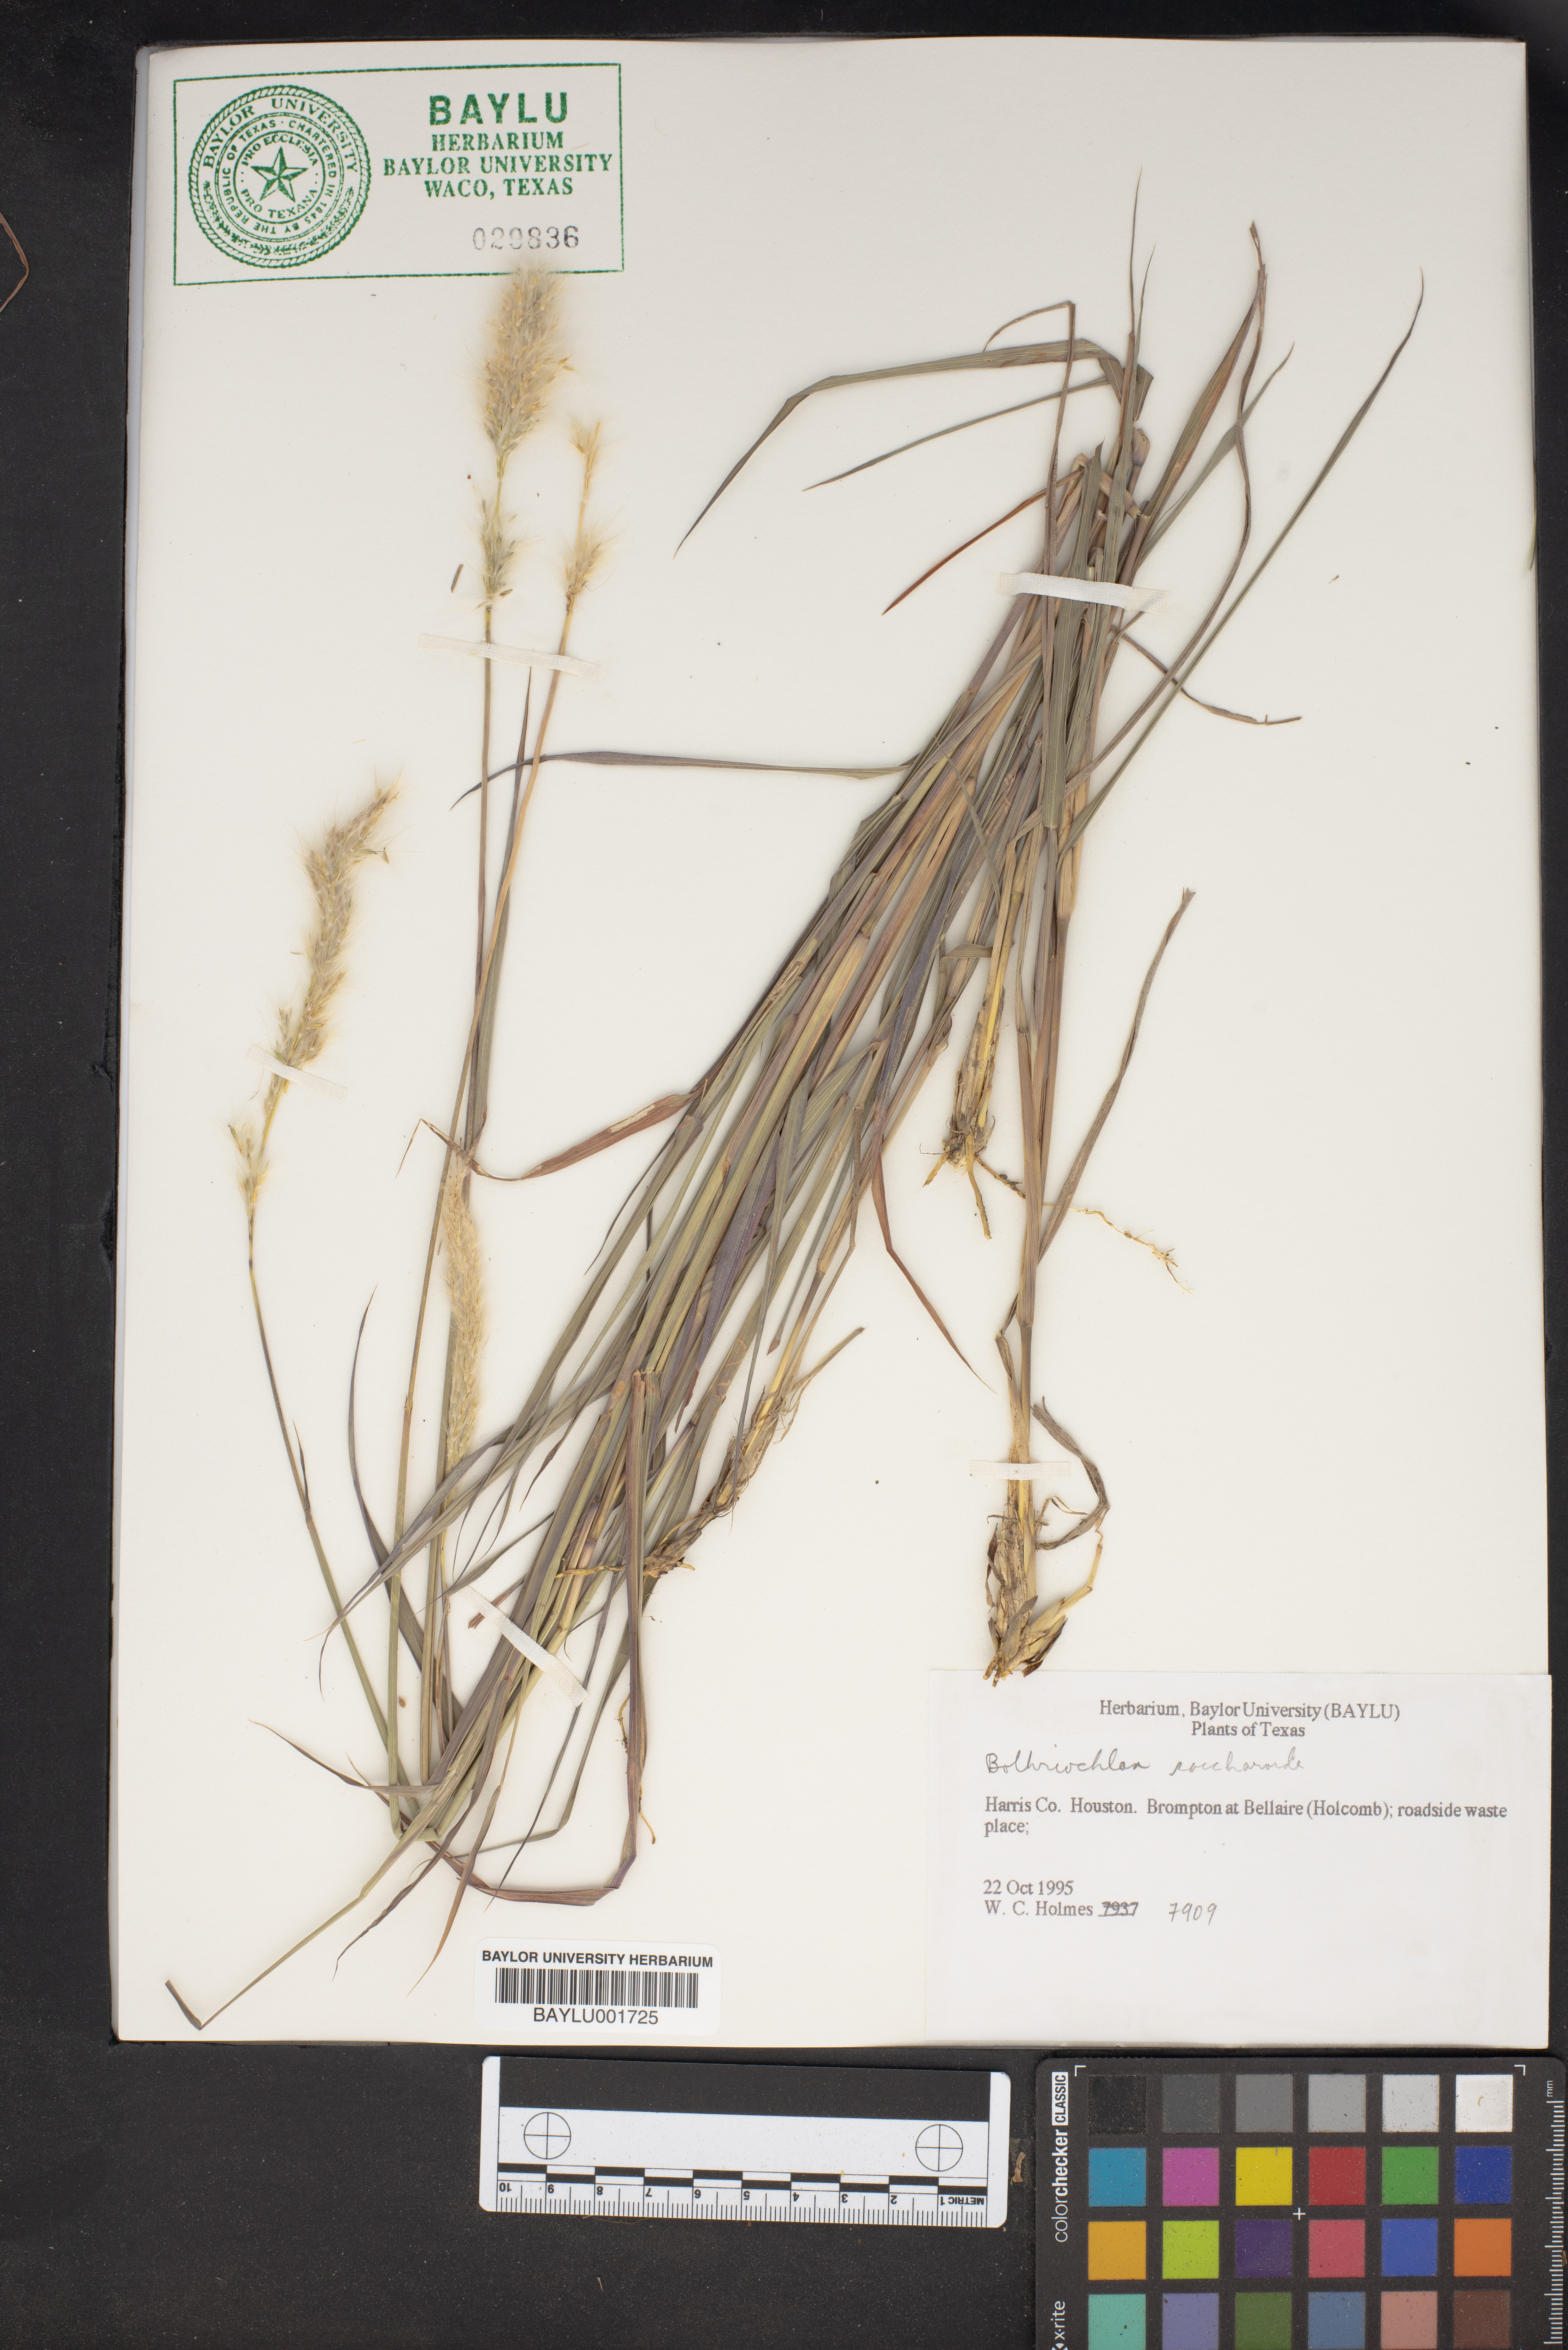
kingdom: Plantae
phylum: Tracheophyta
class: Liliopsida
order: Poales
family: Poaceae
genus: Bothriochloa
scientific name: Bothriochloa saccharoides
